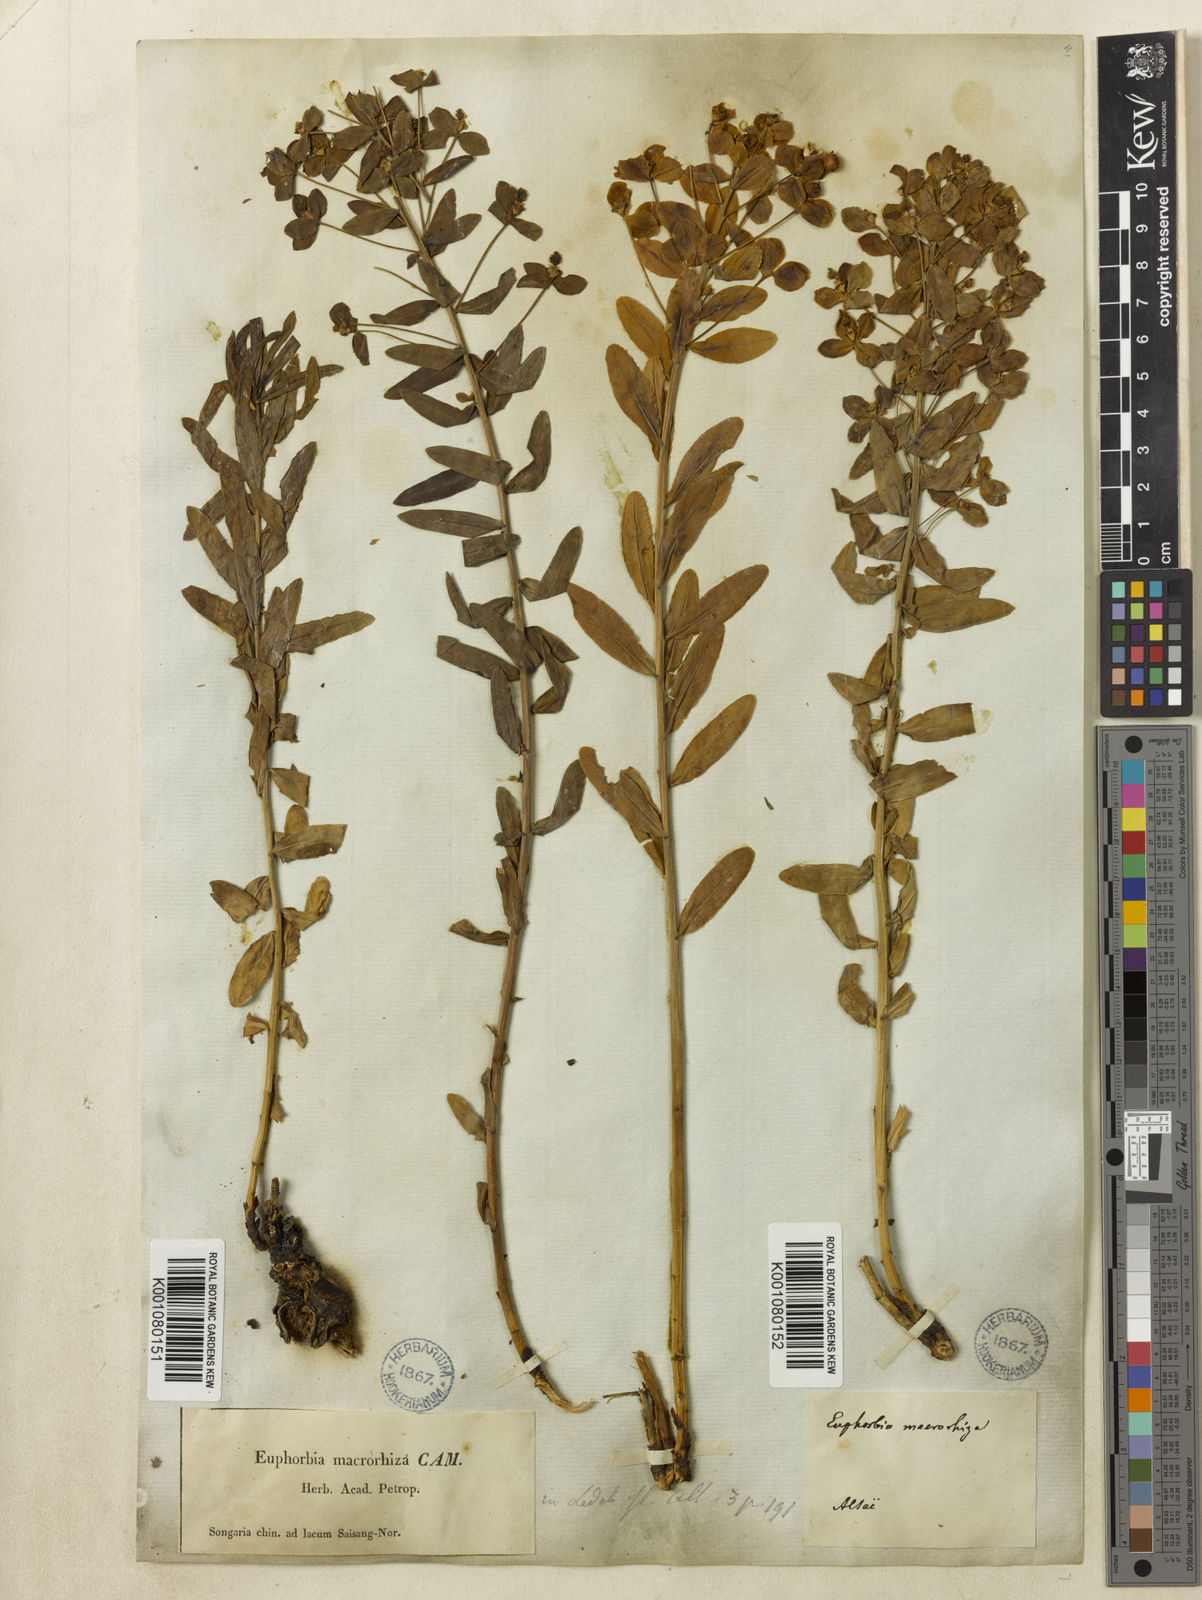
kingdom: Plantae
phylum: Tracheophyta
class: Magnoliopsida
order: Malpighiales
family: Euphorbiaceae
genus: Euphorbia
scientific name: Euphorbia
